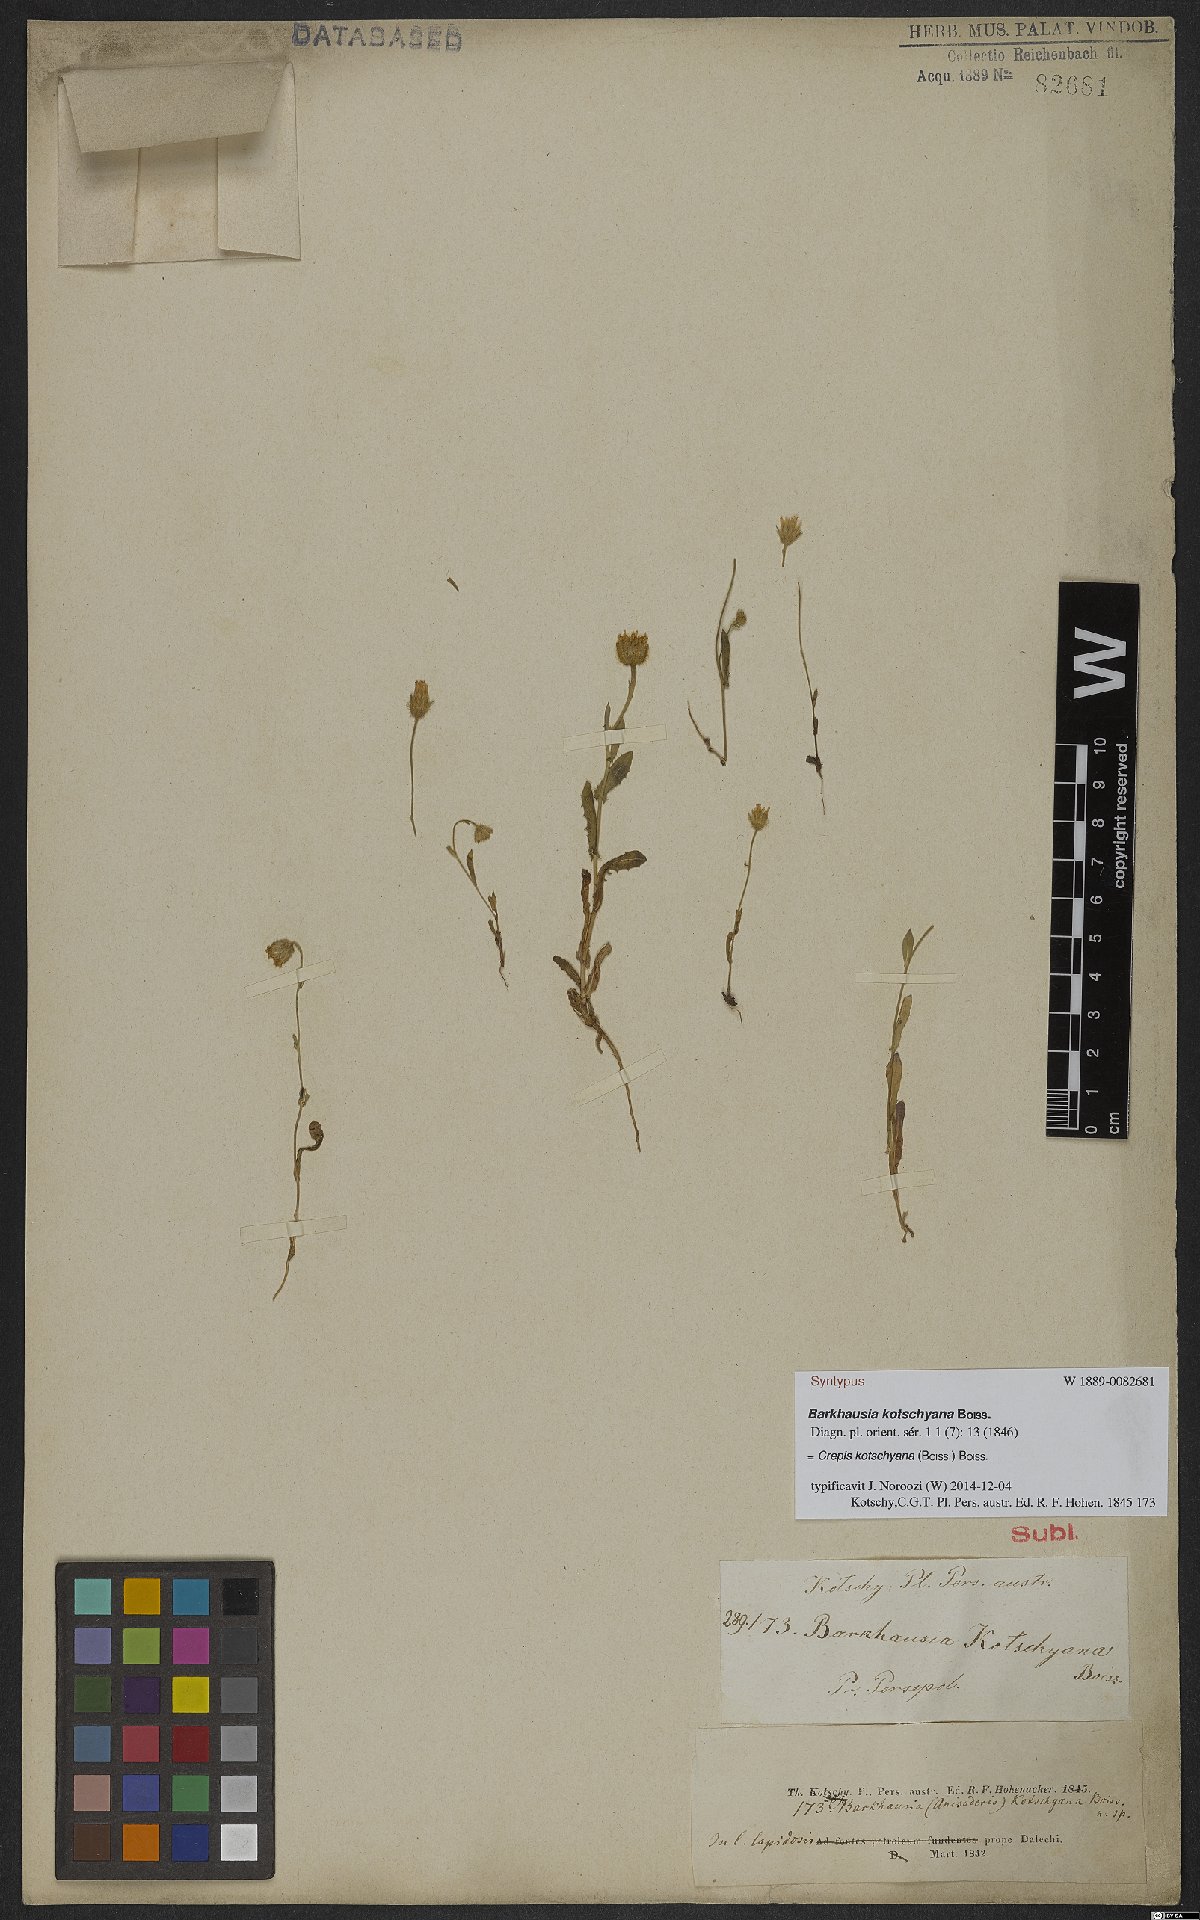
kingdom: Plantae
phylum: Tracheophyta
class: Magnoliopsida
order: Asterales
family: Asteraceae
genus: Crepis
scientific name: Crepis kotschyana
